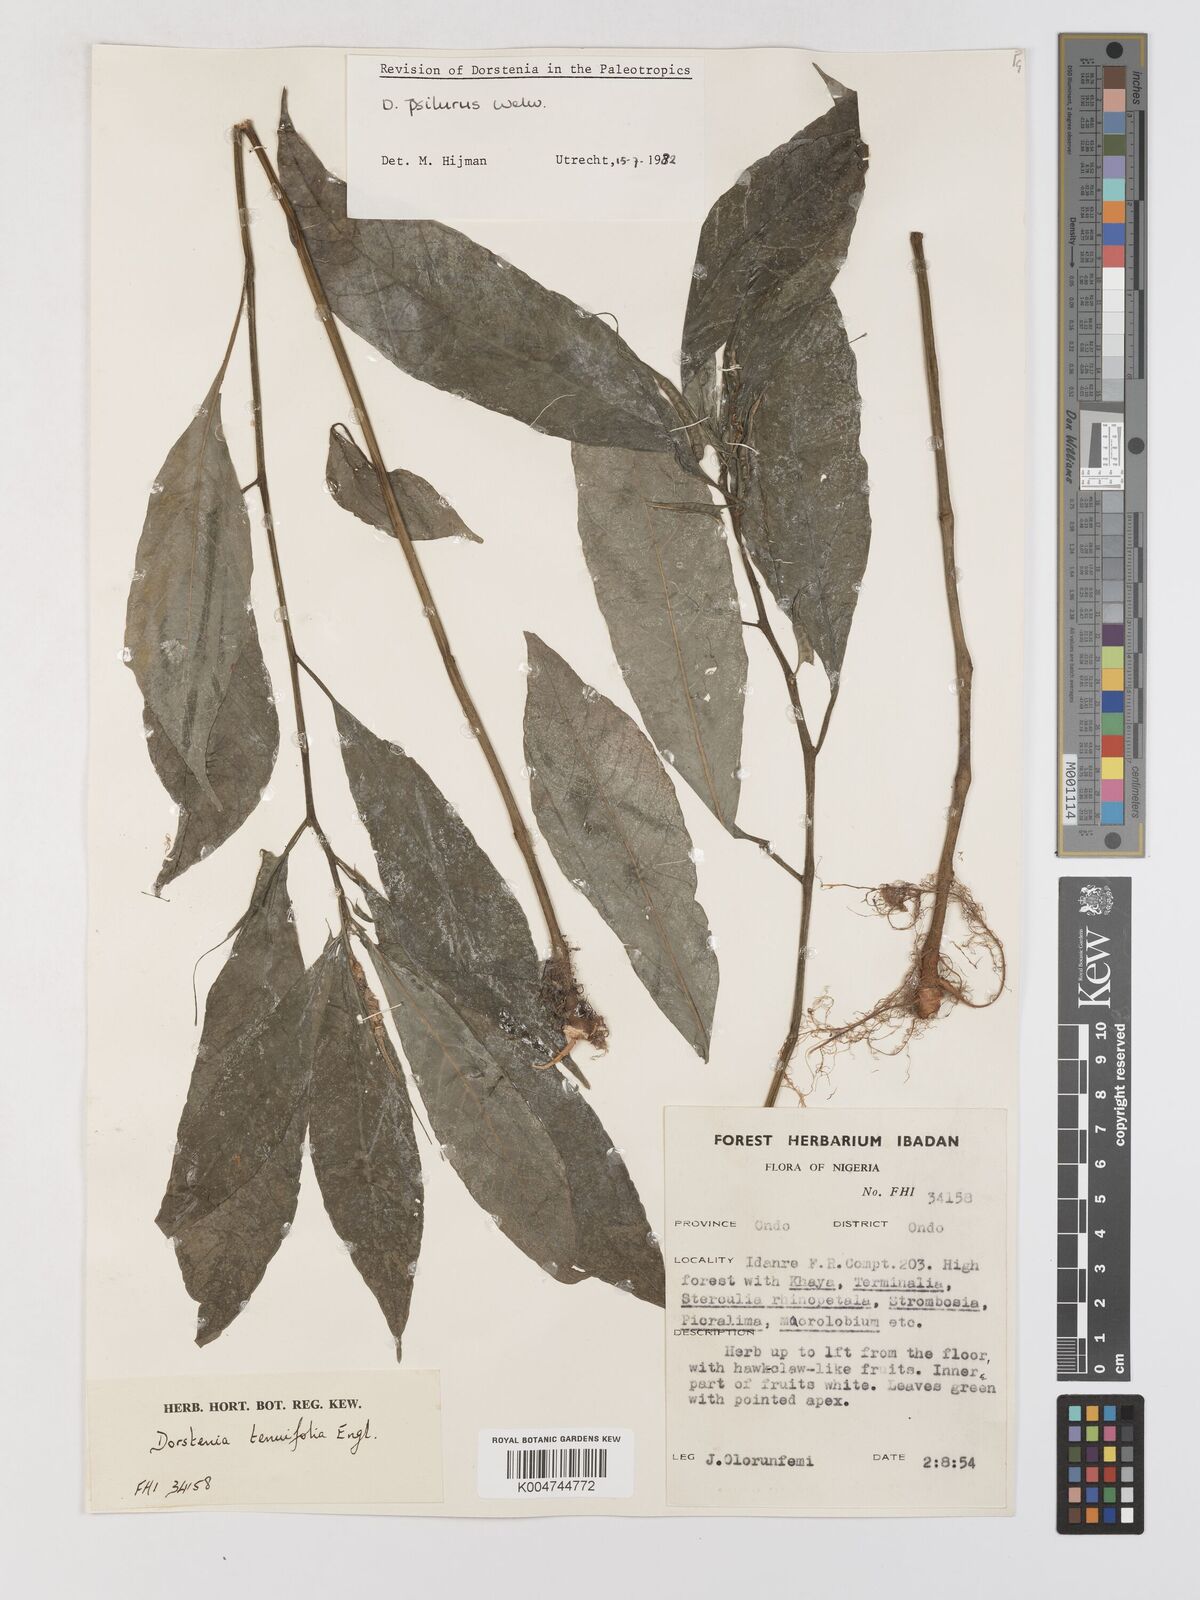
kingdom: Plantae
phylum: Tracheophyta
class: Magnoliopsida
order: Rosales
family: Moraceae
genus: Dorstenia
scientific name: Dorstenia psilurus
